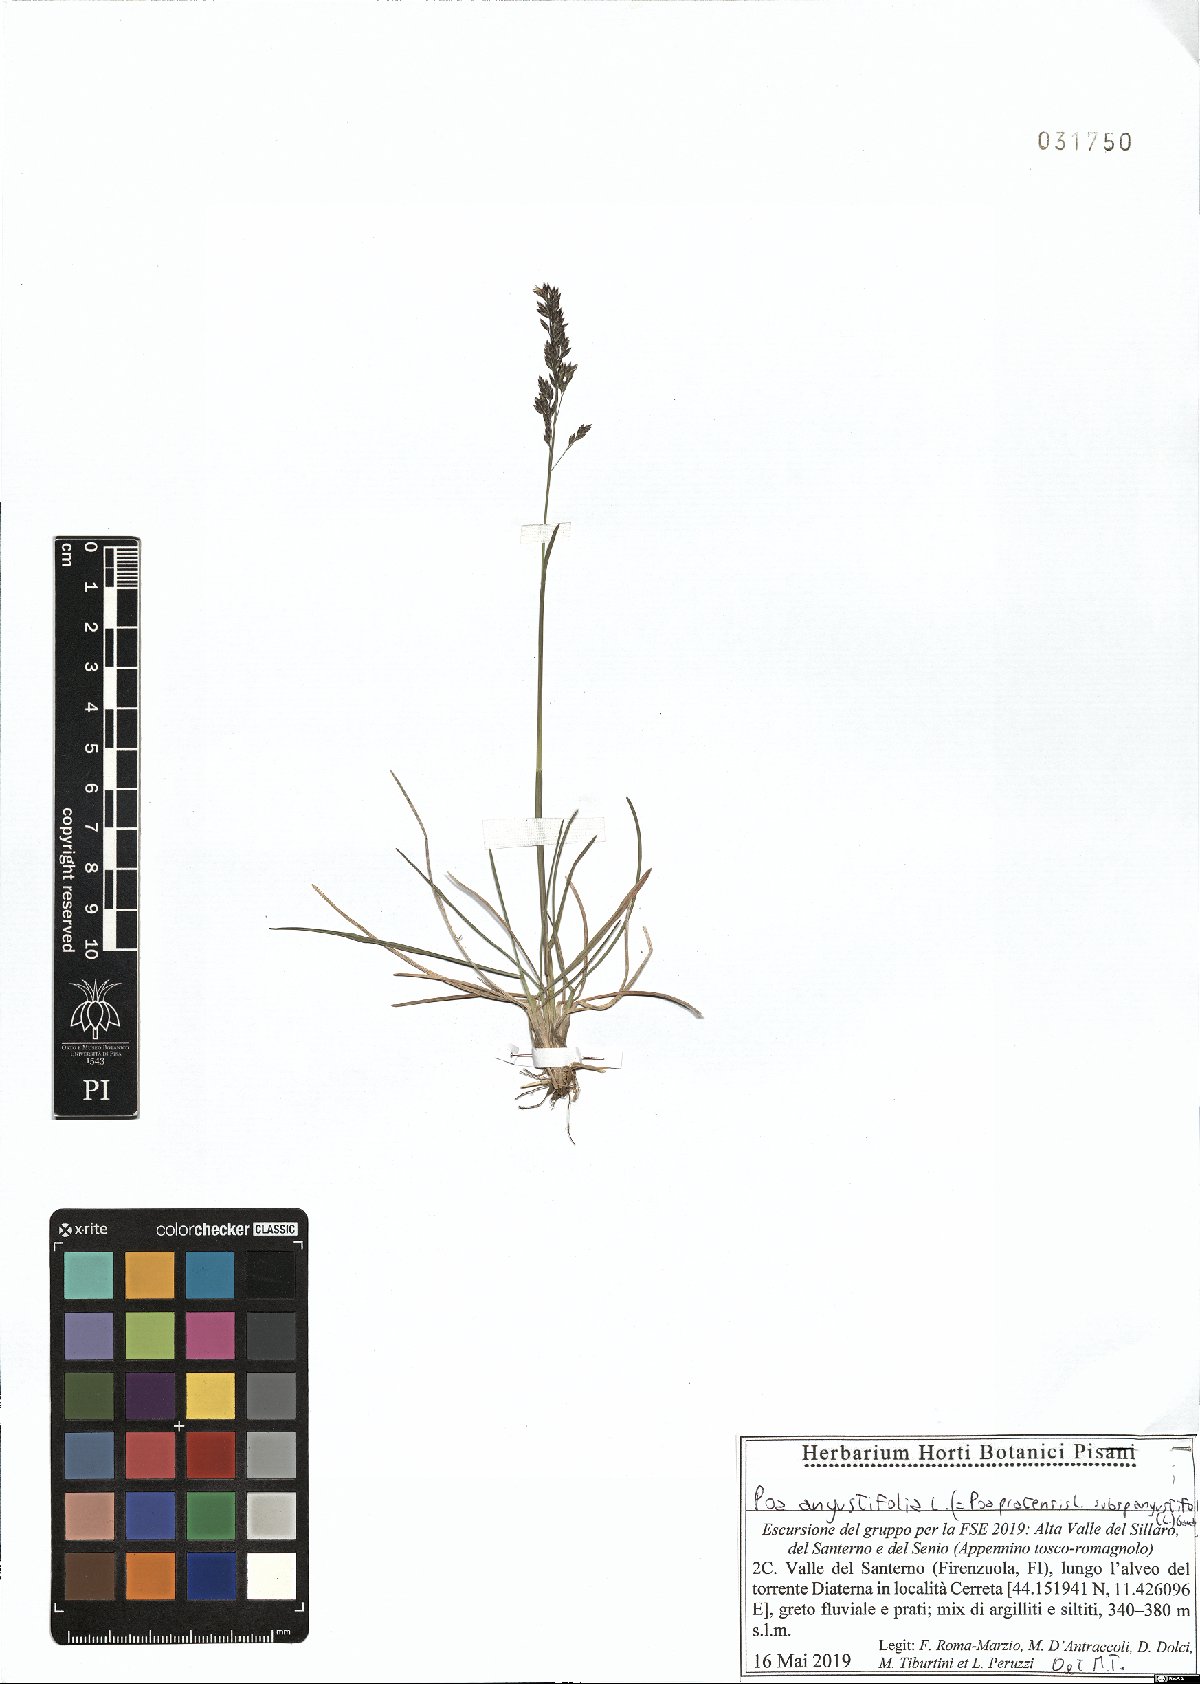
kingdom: Plantae
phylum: Tracheophyta
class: Liliopsida
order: Poales
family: Poaceae
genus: Poa
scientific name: Poa angustifolia
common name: Narrow-leaved meadow-grass
